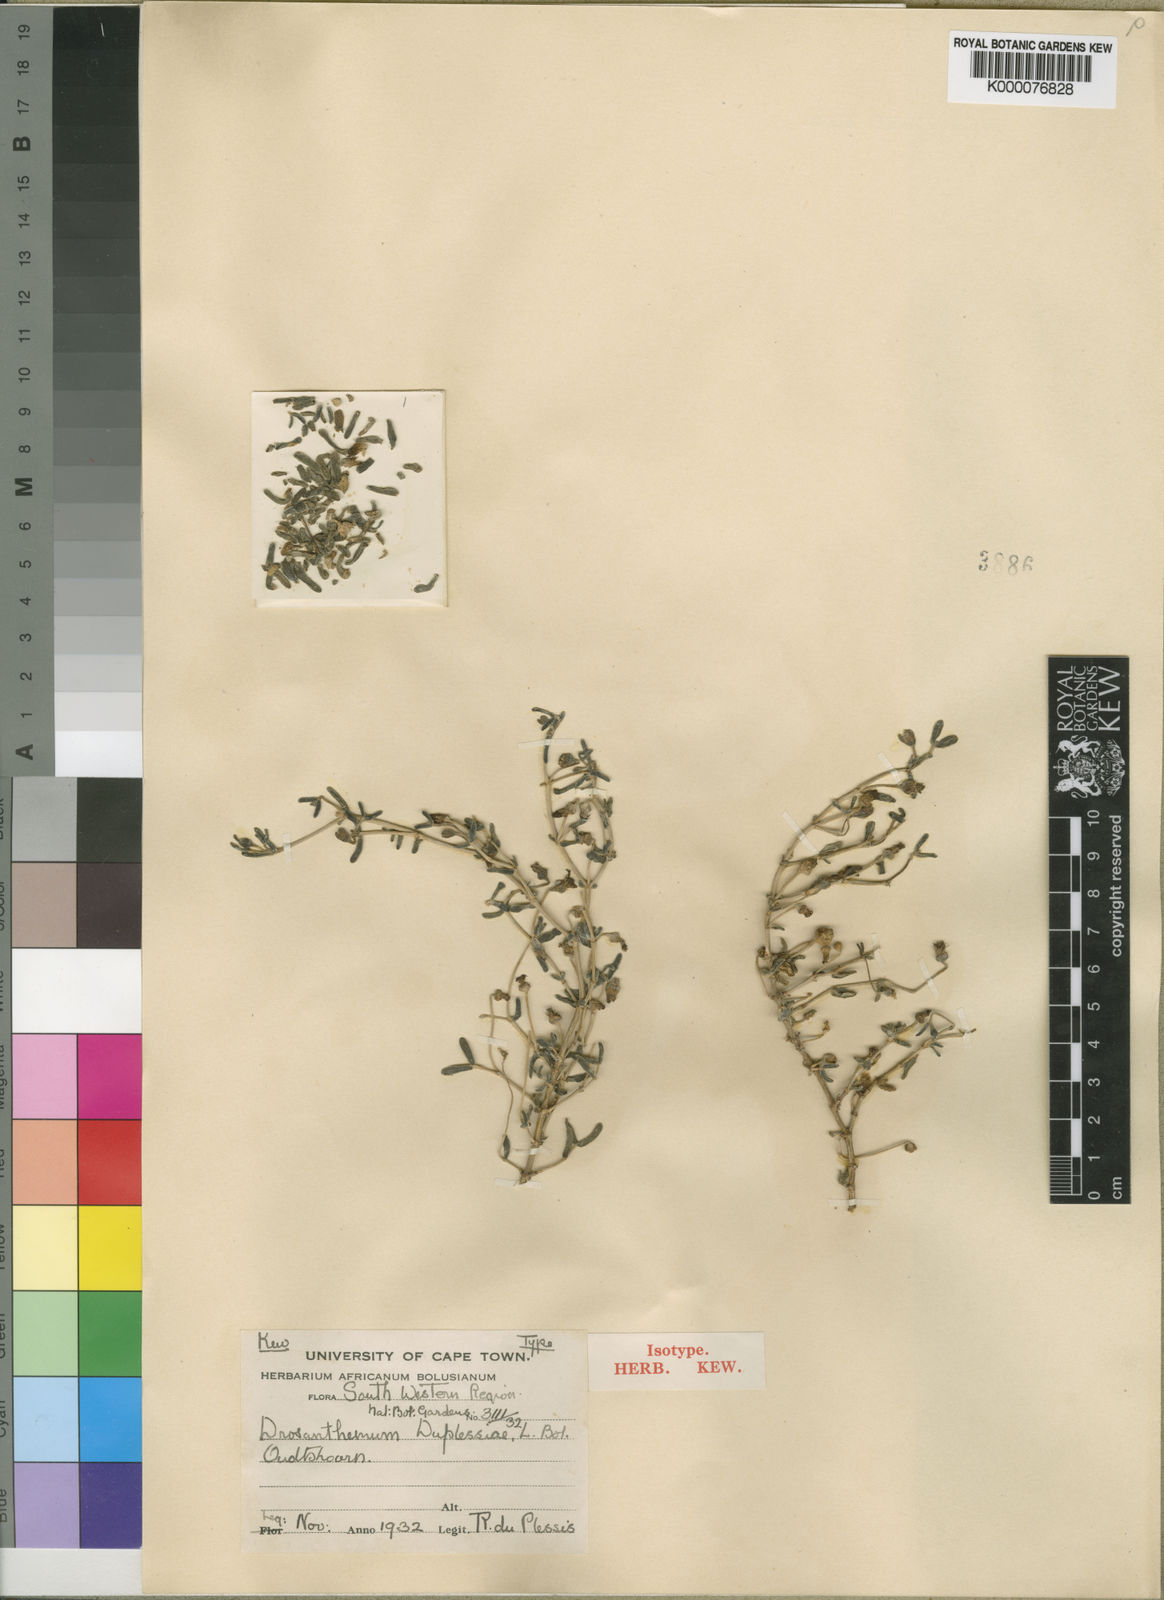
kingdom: Plantae
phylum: Tracheophyta
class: Magnoliopsida
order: Caryophyllales
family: Aizoaceae
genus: Drosanthemum
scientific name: Drosanthemum duplessiae
